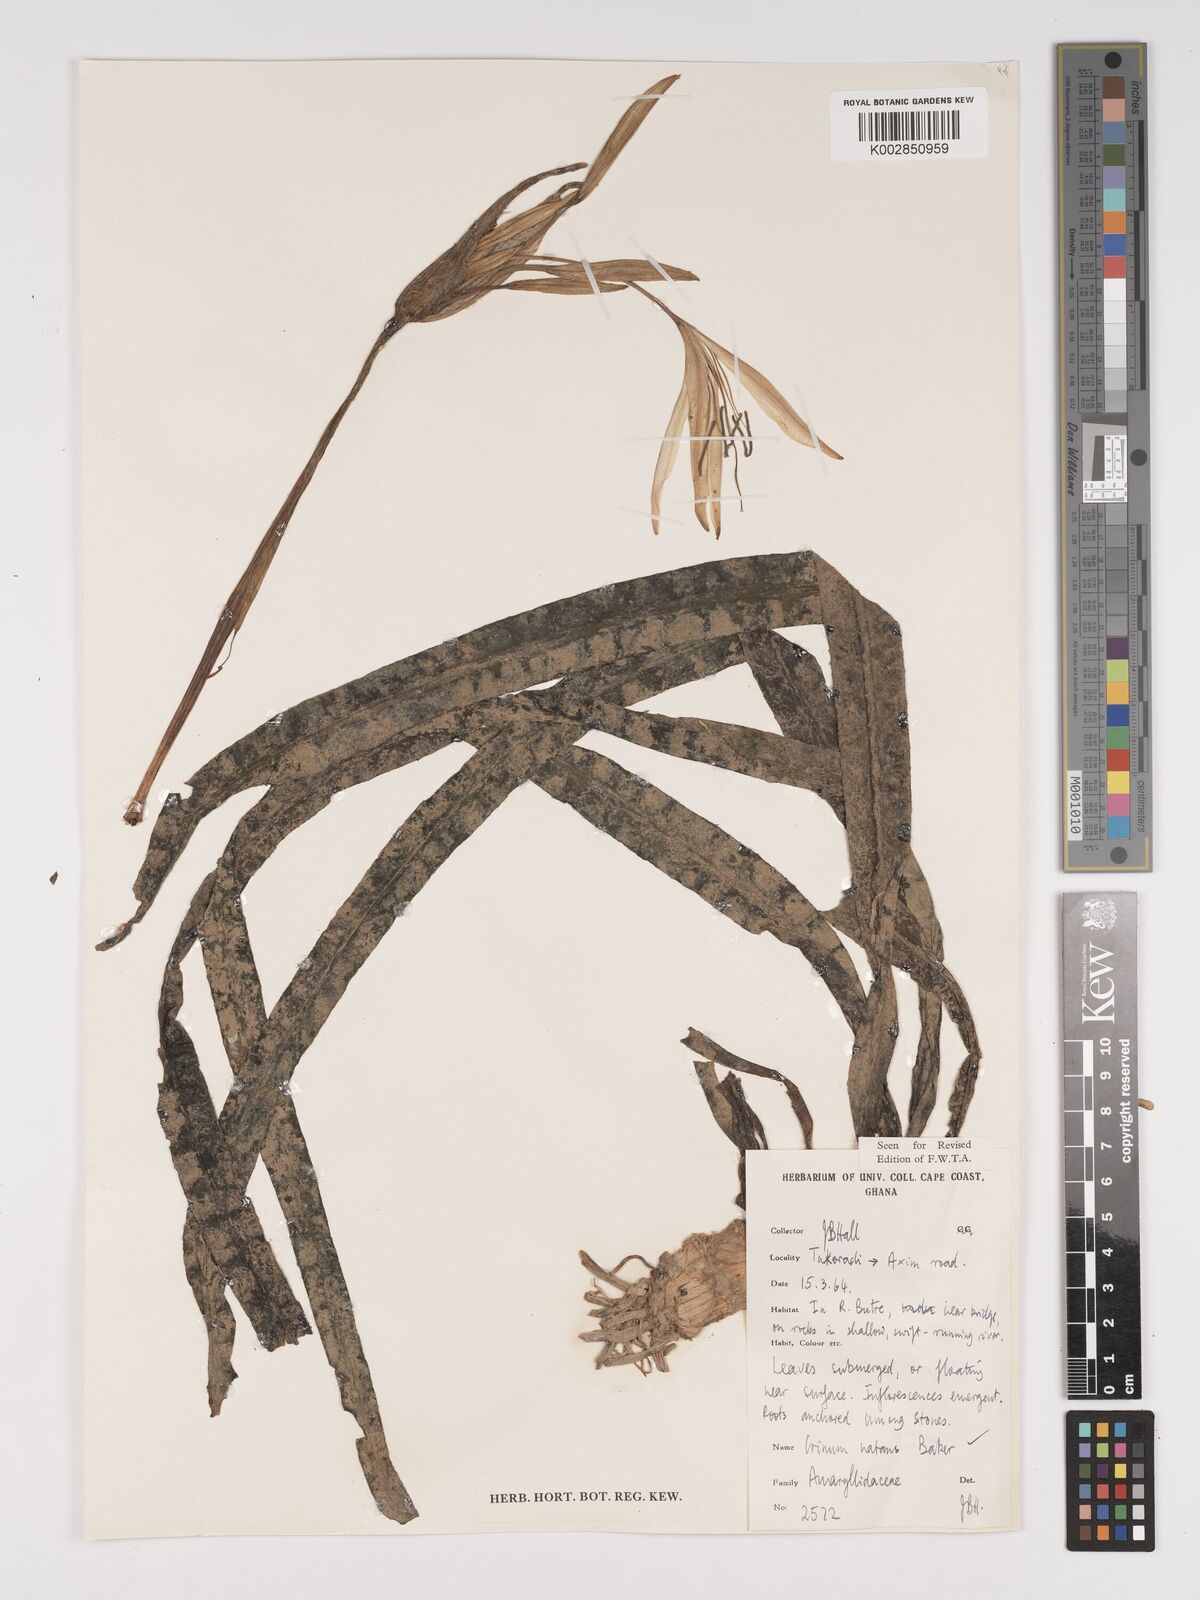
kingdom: Plantae
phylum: Tracheophyta
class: Liliopsida
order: Asparagales
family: Amaryllidaceae
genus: Crinum
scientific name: Crinum moorei
